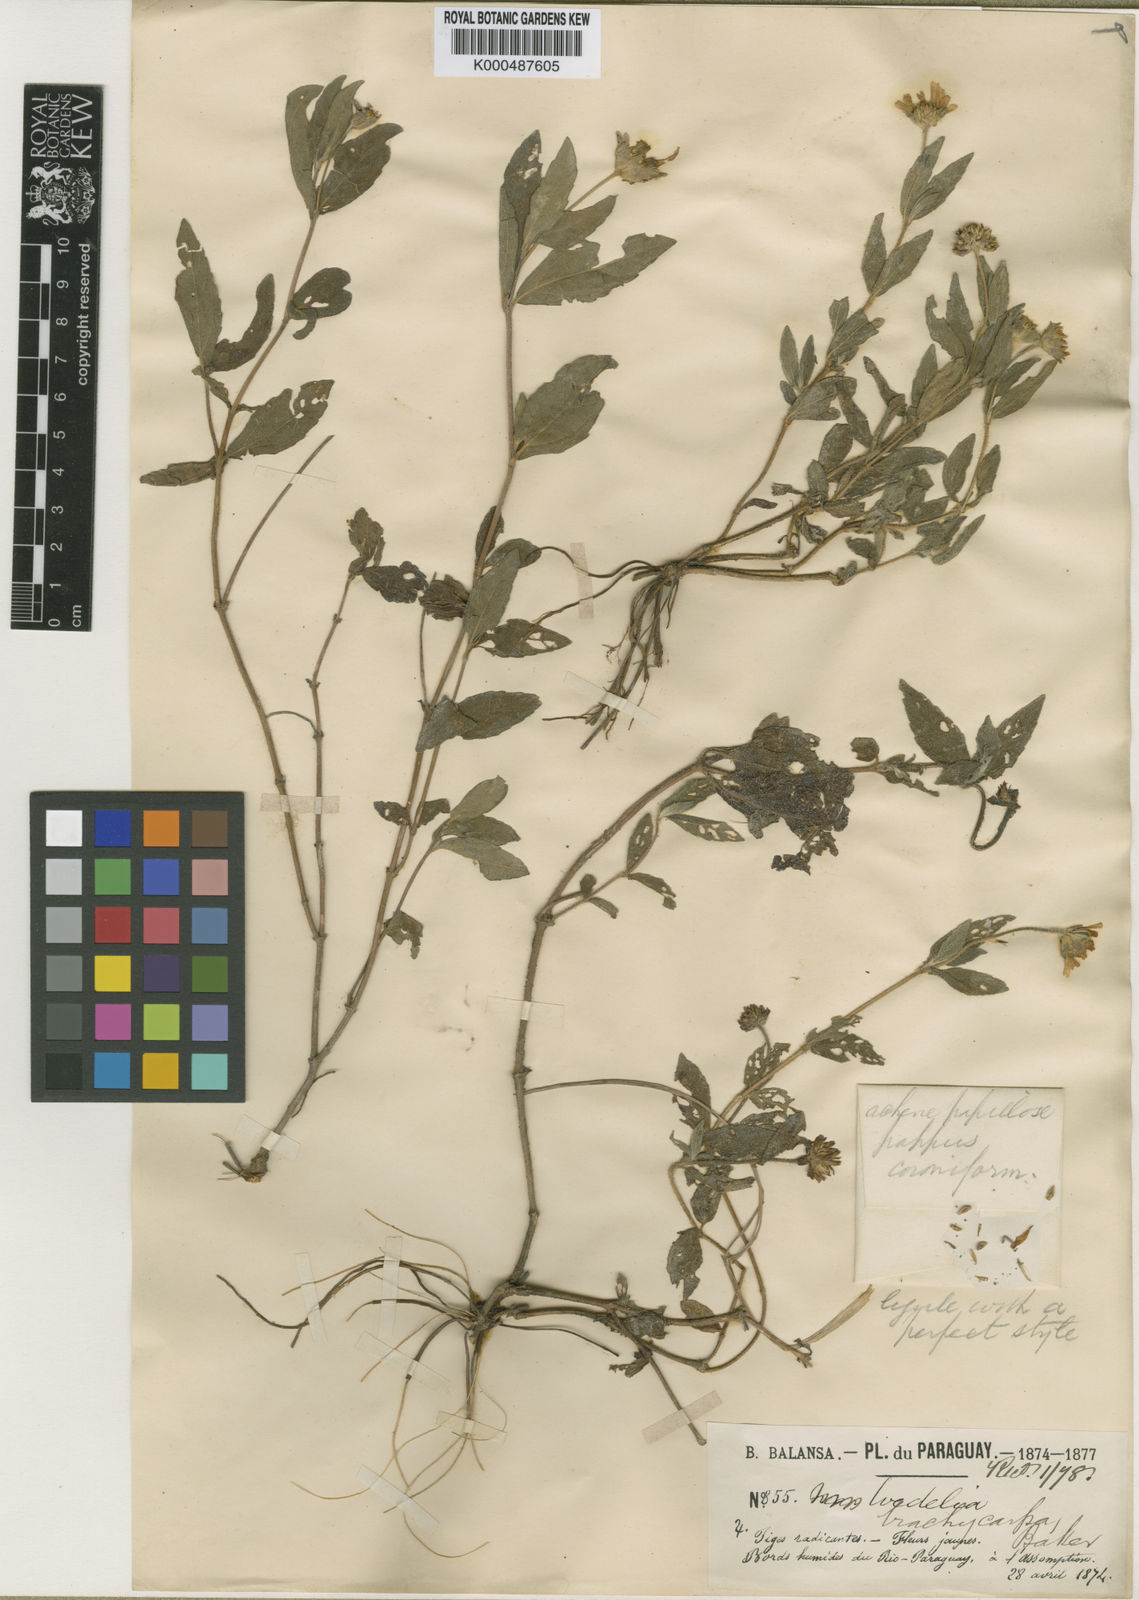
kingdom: Plantae
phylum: Tracheophyta
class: Magnoliopsida
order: Asterales
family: Asteraceae
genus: Sphagneticola
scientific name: Sphagneticola brachycarpa
